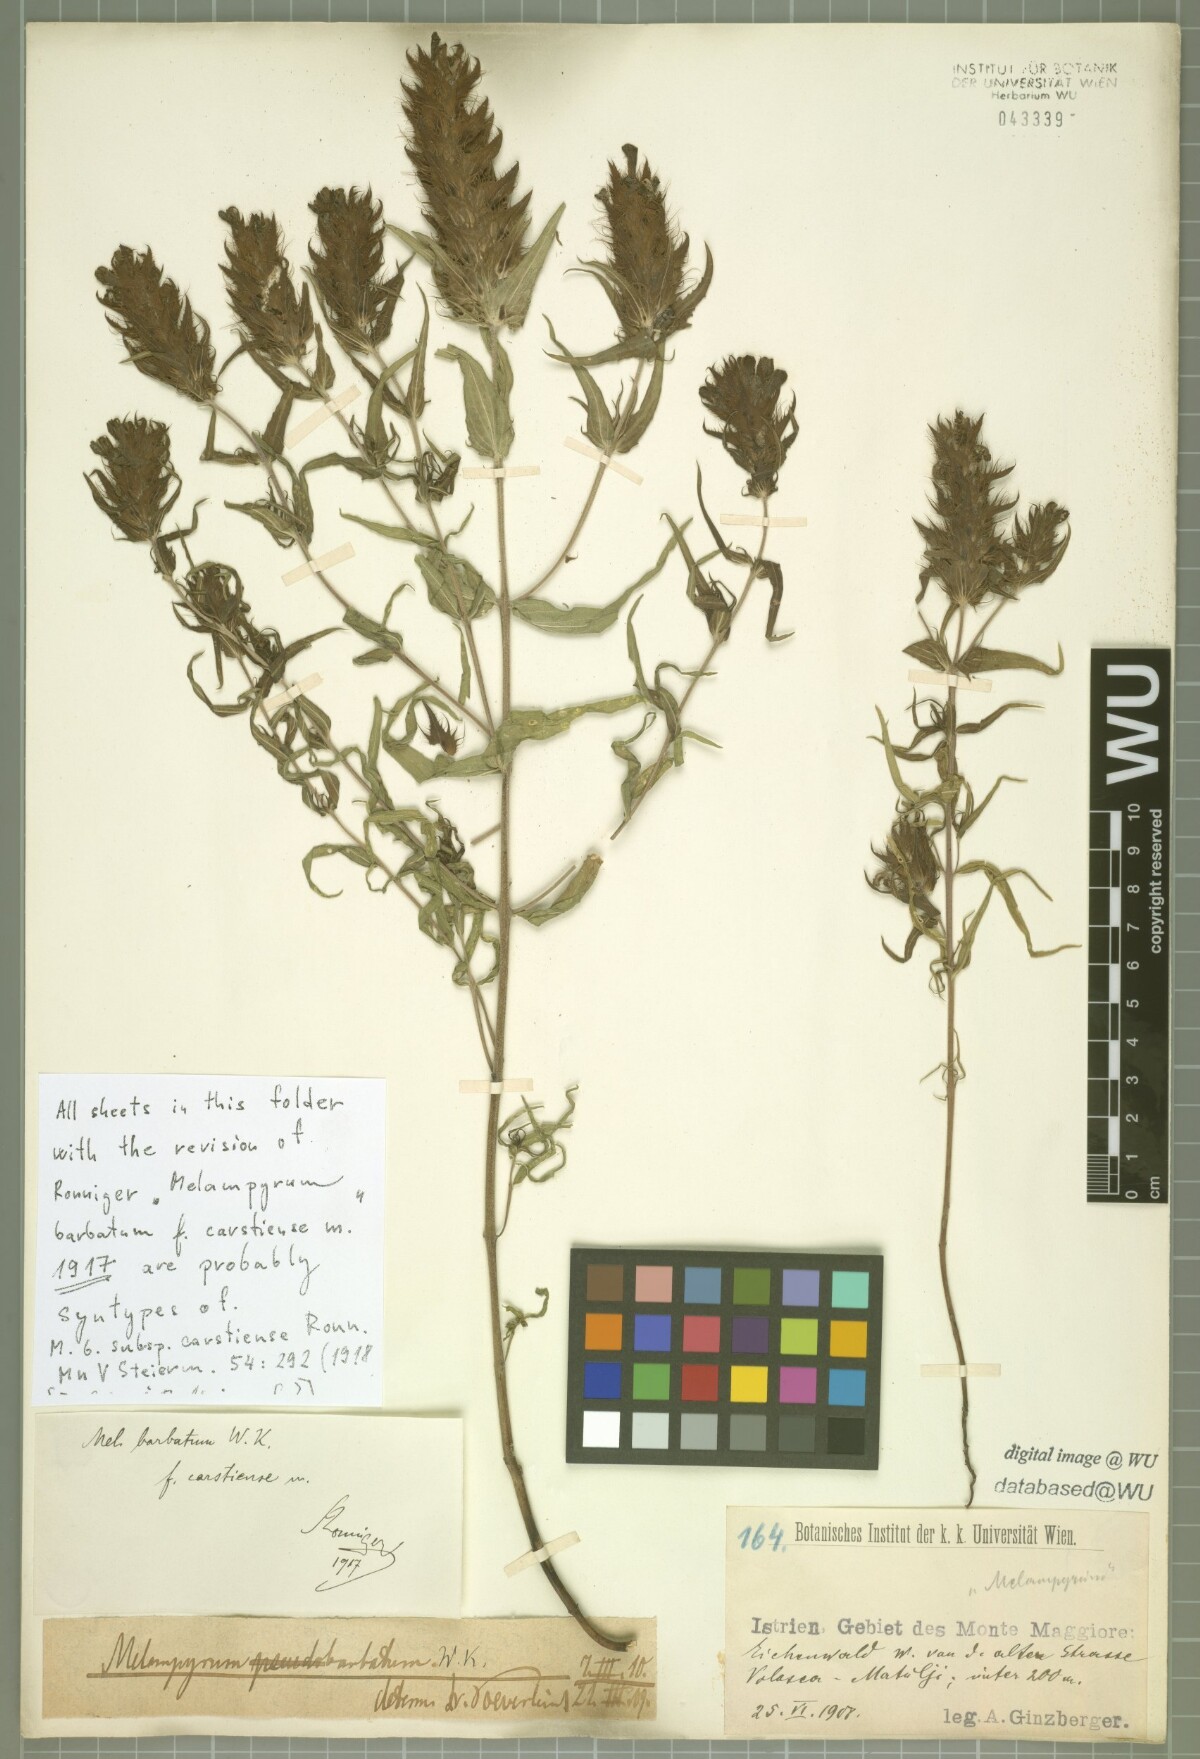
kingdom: Plantae
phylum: Tracheophyta
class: Magnoliopsida
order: Lamiales
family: Orobanchaceae
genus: Melampyrum
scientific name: Melampyrum barbatum
